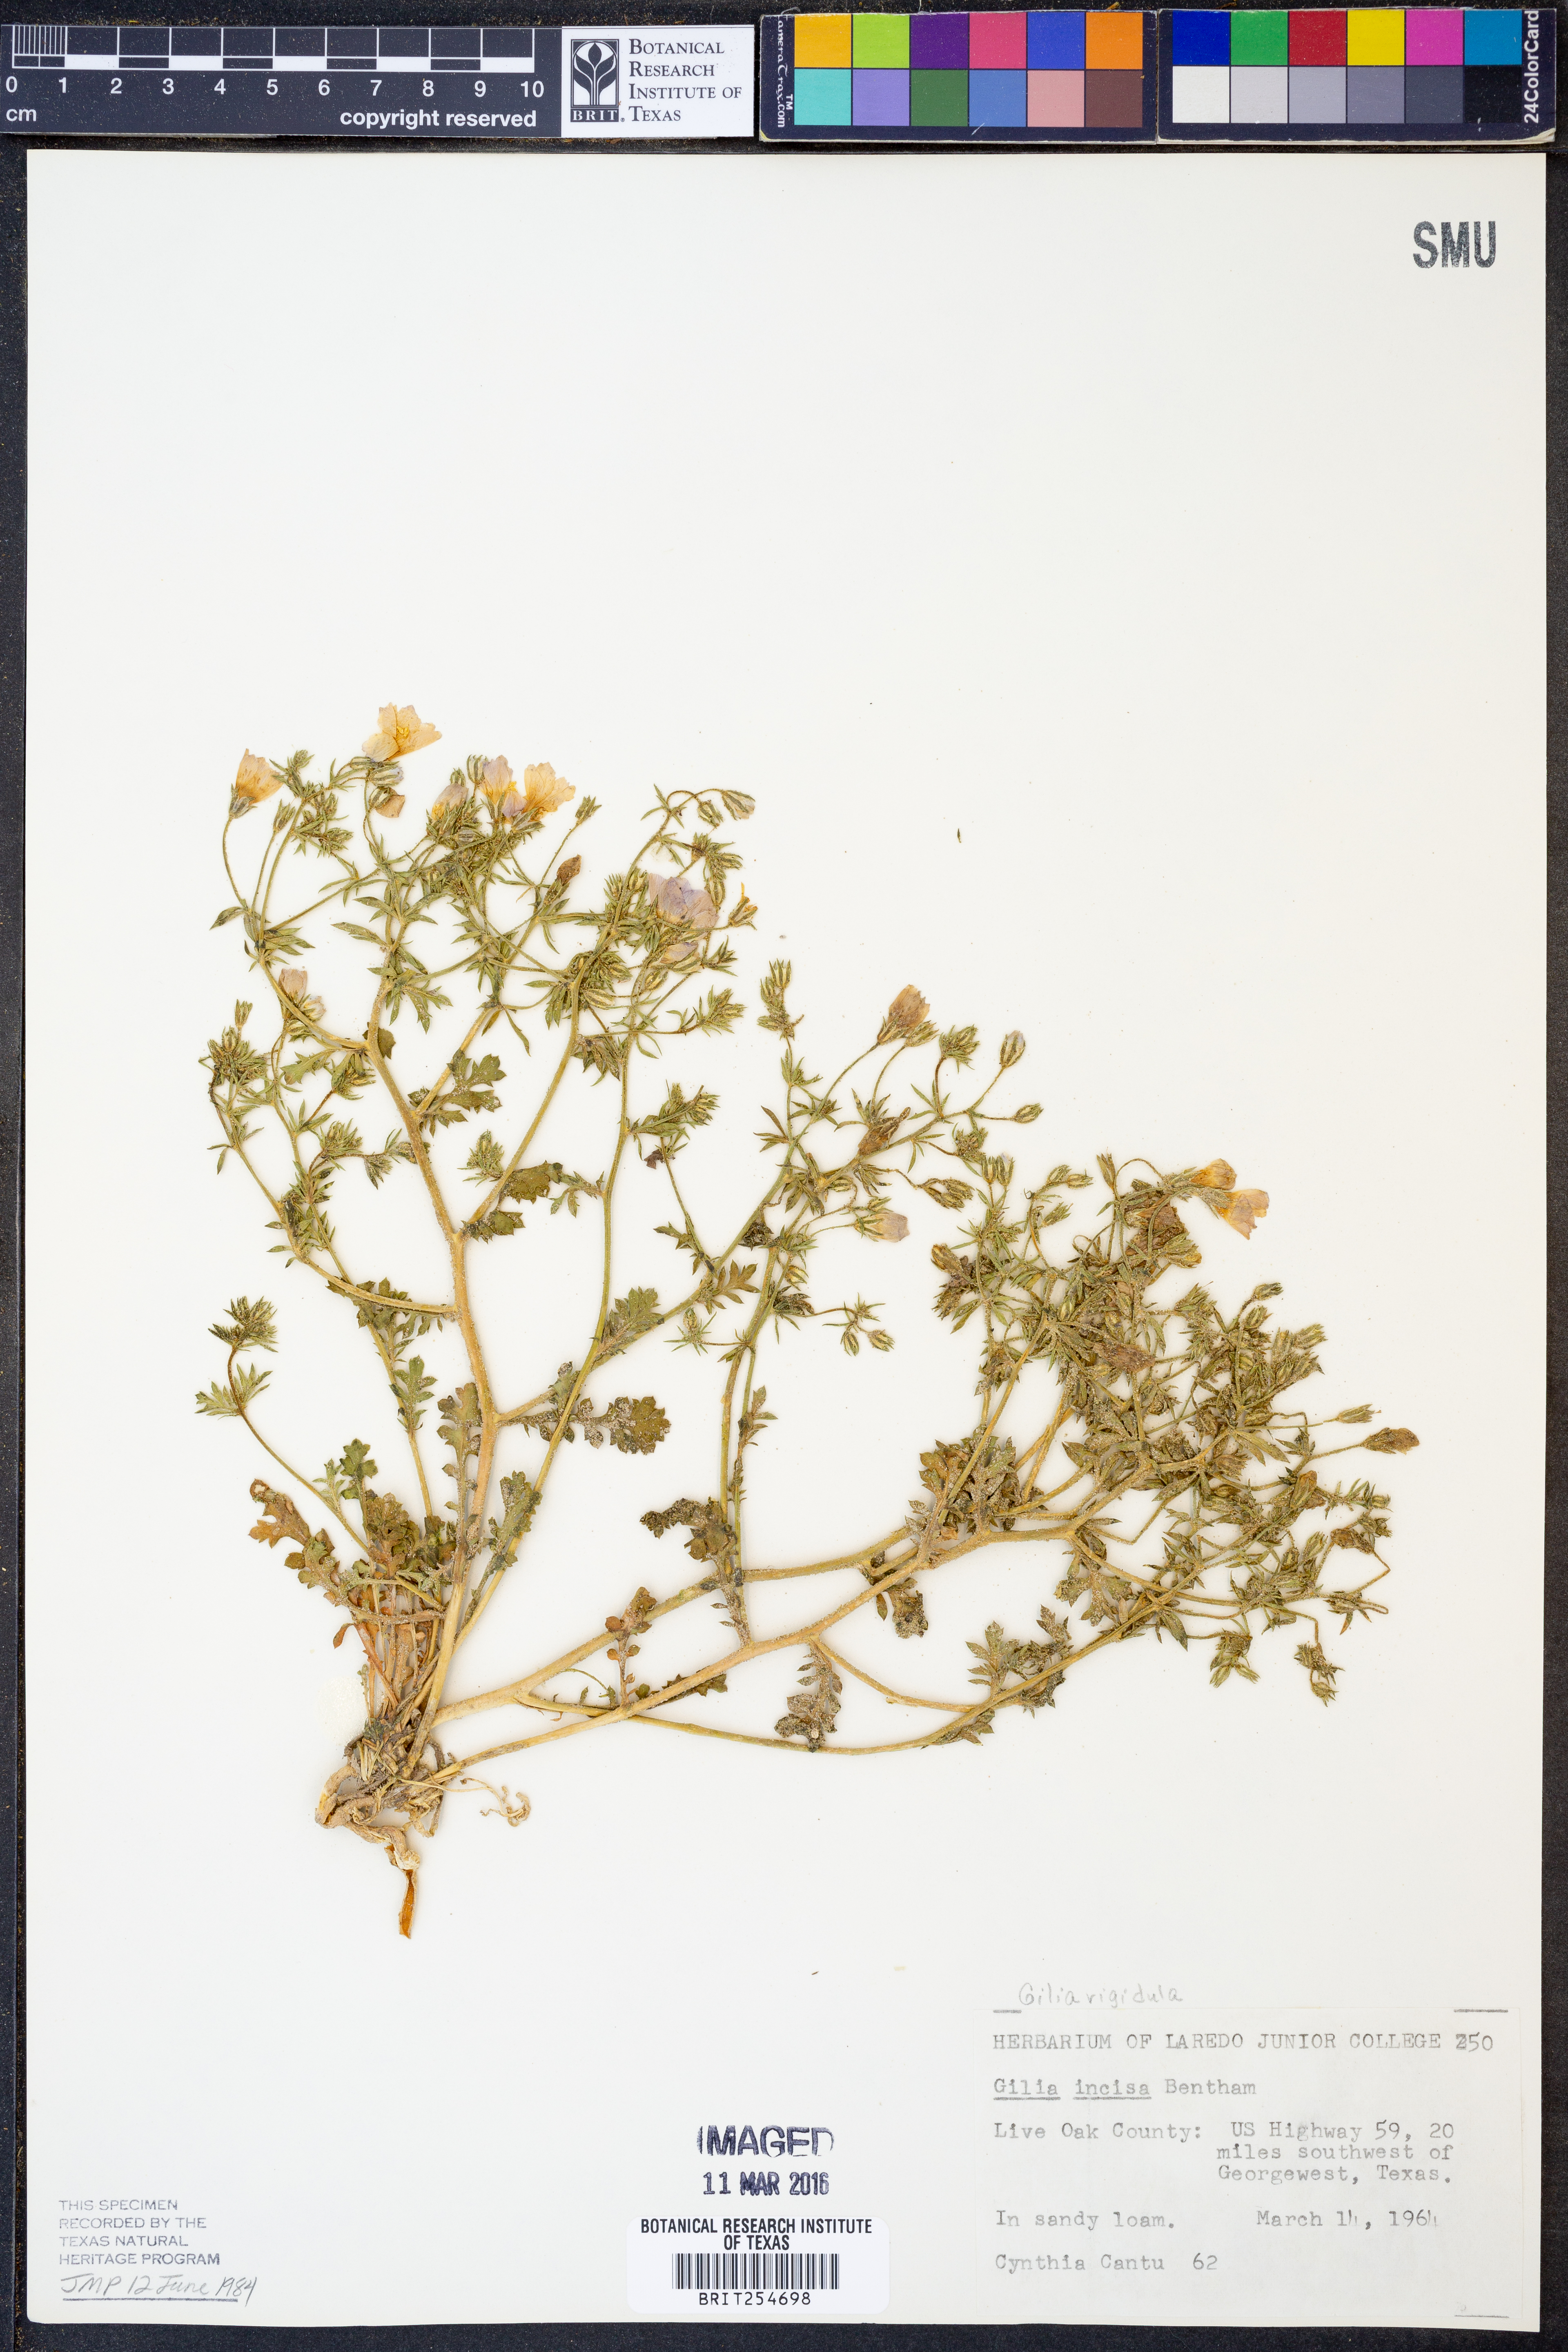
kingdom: Plantae
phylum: Tracheophyta
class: Magnoliopsida
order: Ericales
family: Polemoniaceae
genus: Giliastrum
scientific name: Giliastrum rigidulum
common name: Bluebowls
